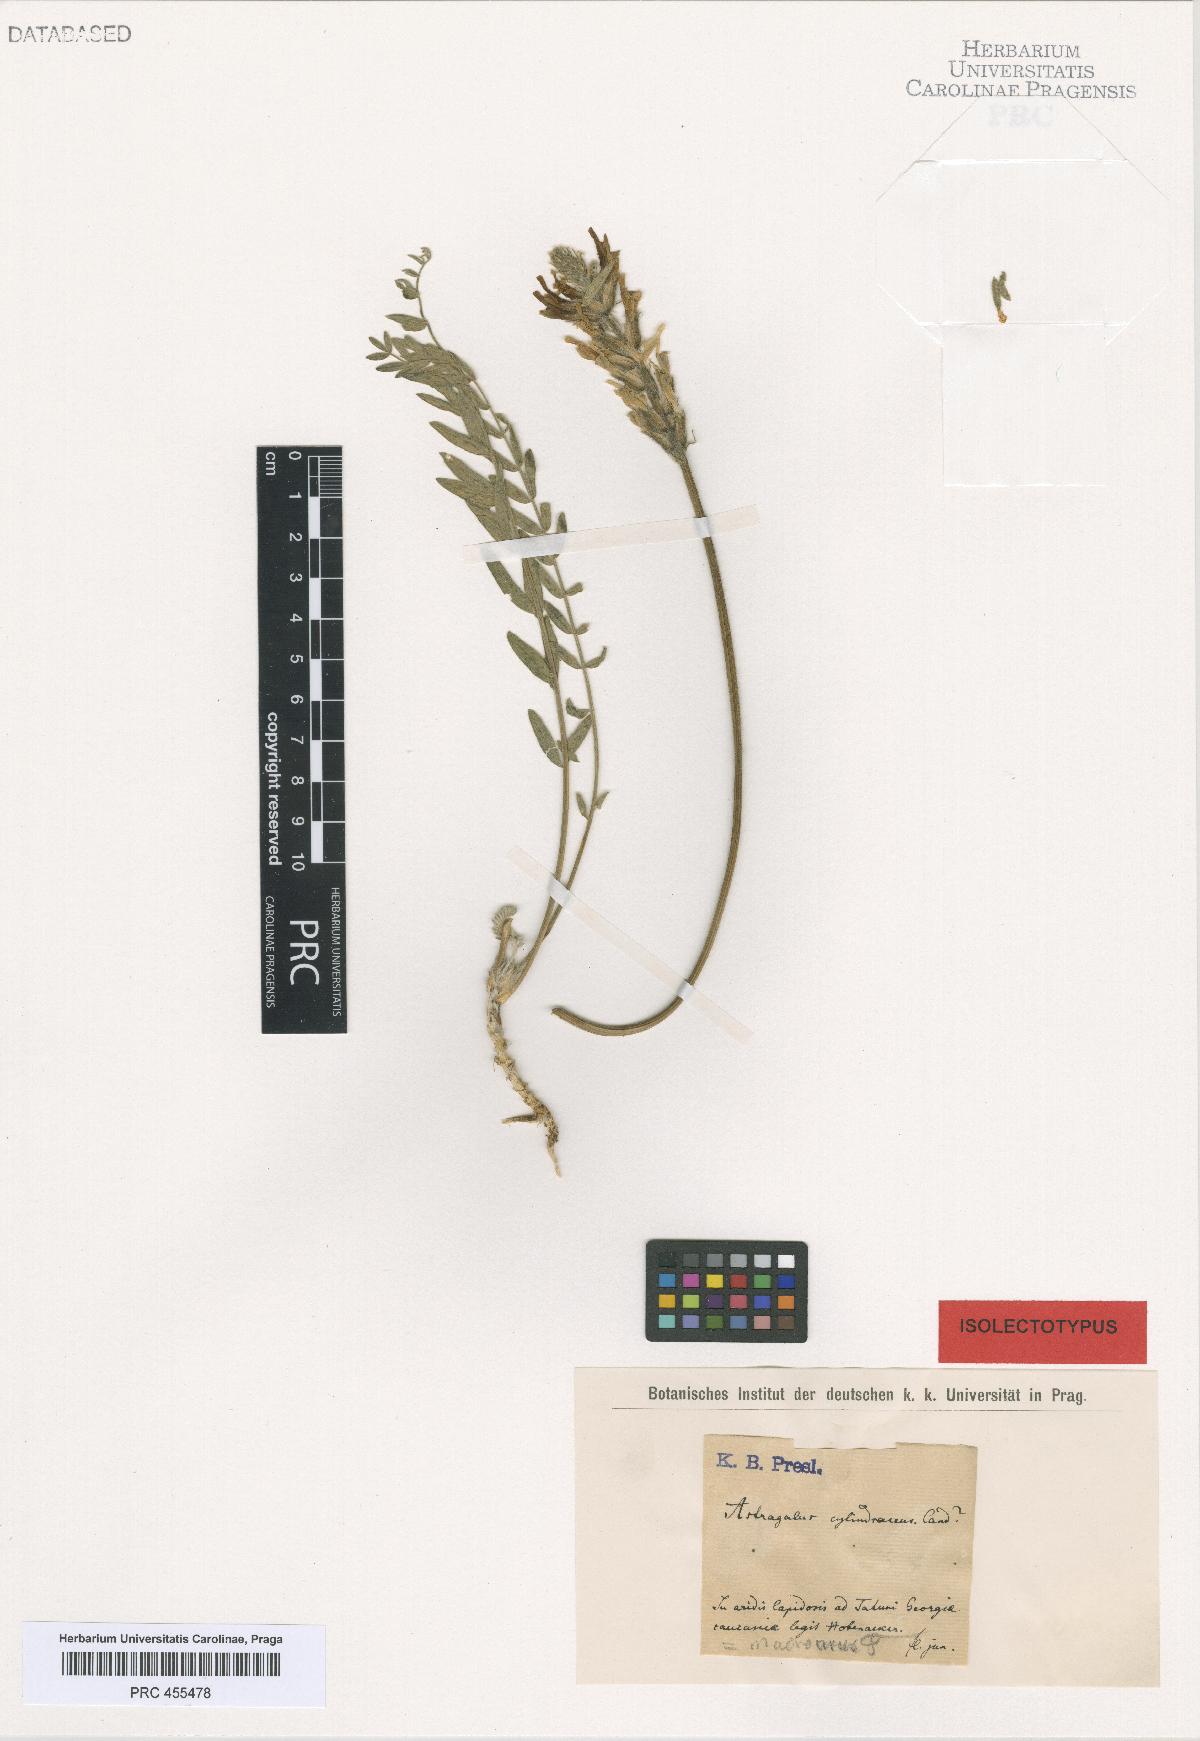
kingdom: Plantae
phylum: Tracheophyta
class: Magnoliopsida
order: Fabales
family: Fabaceae
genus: Astragalus
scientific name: Astragalus macrourus
